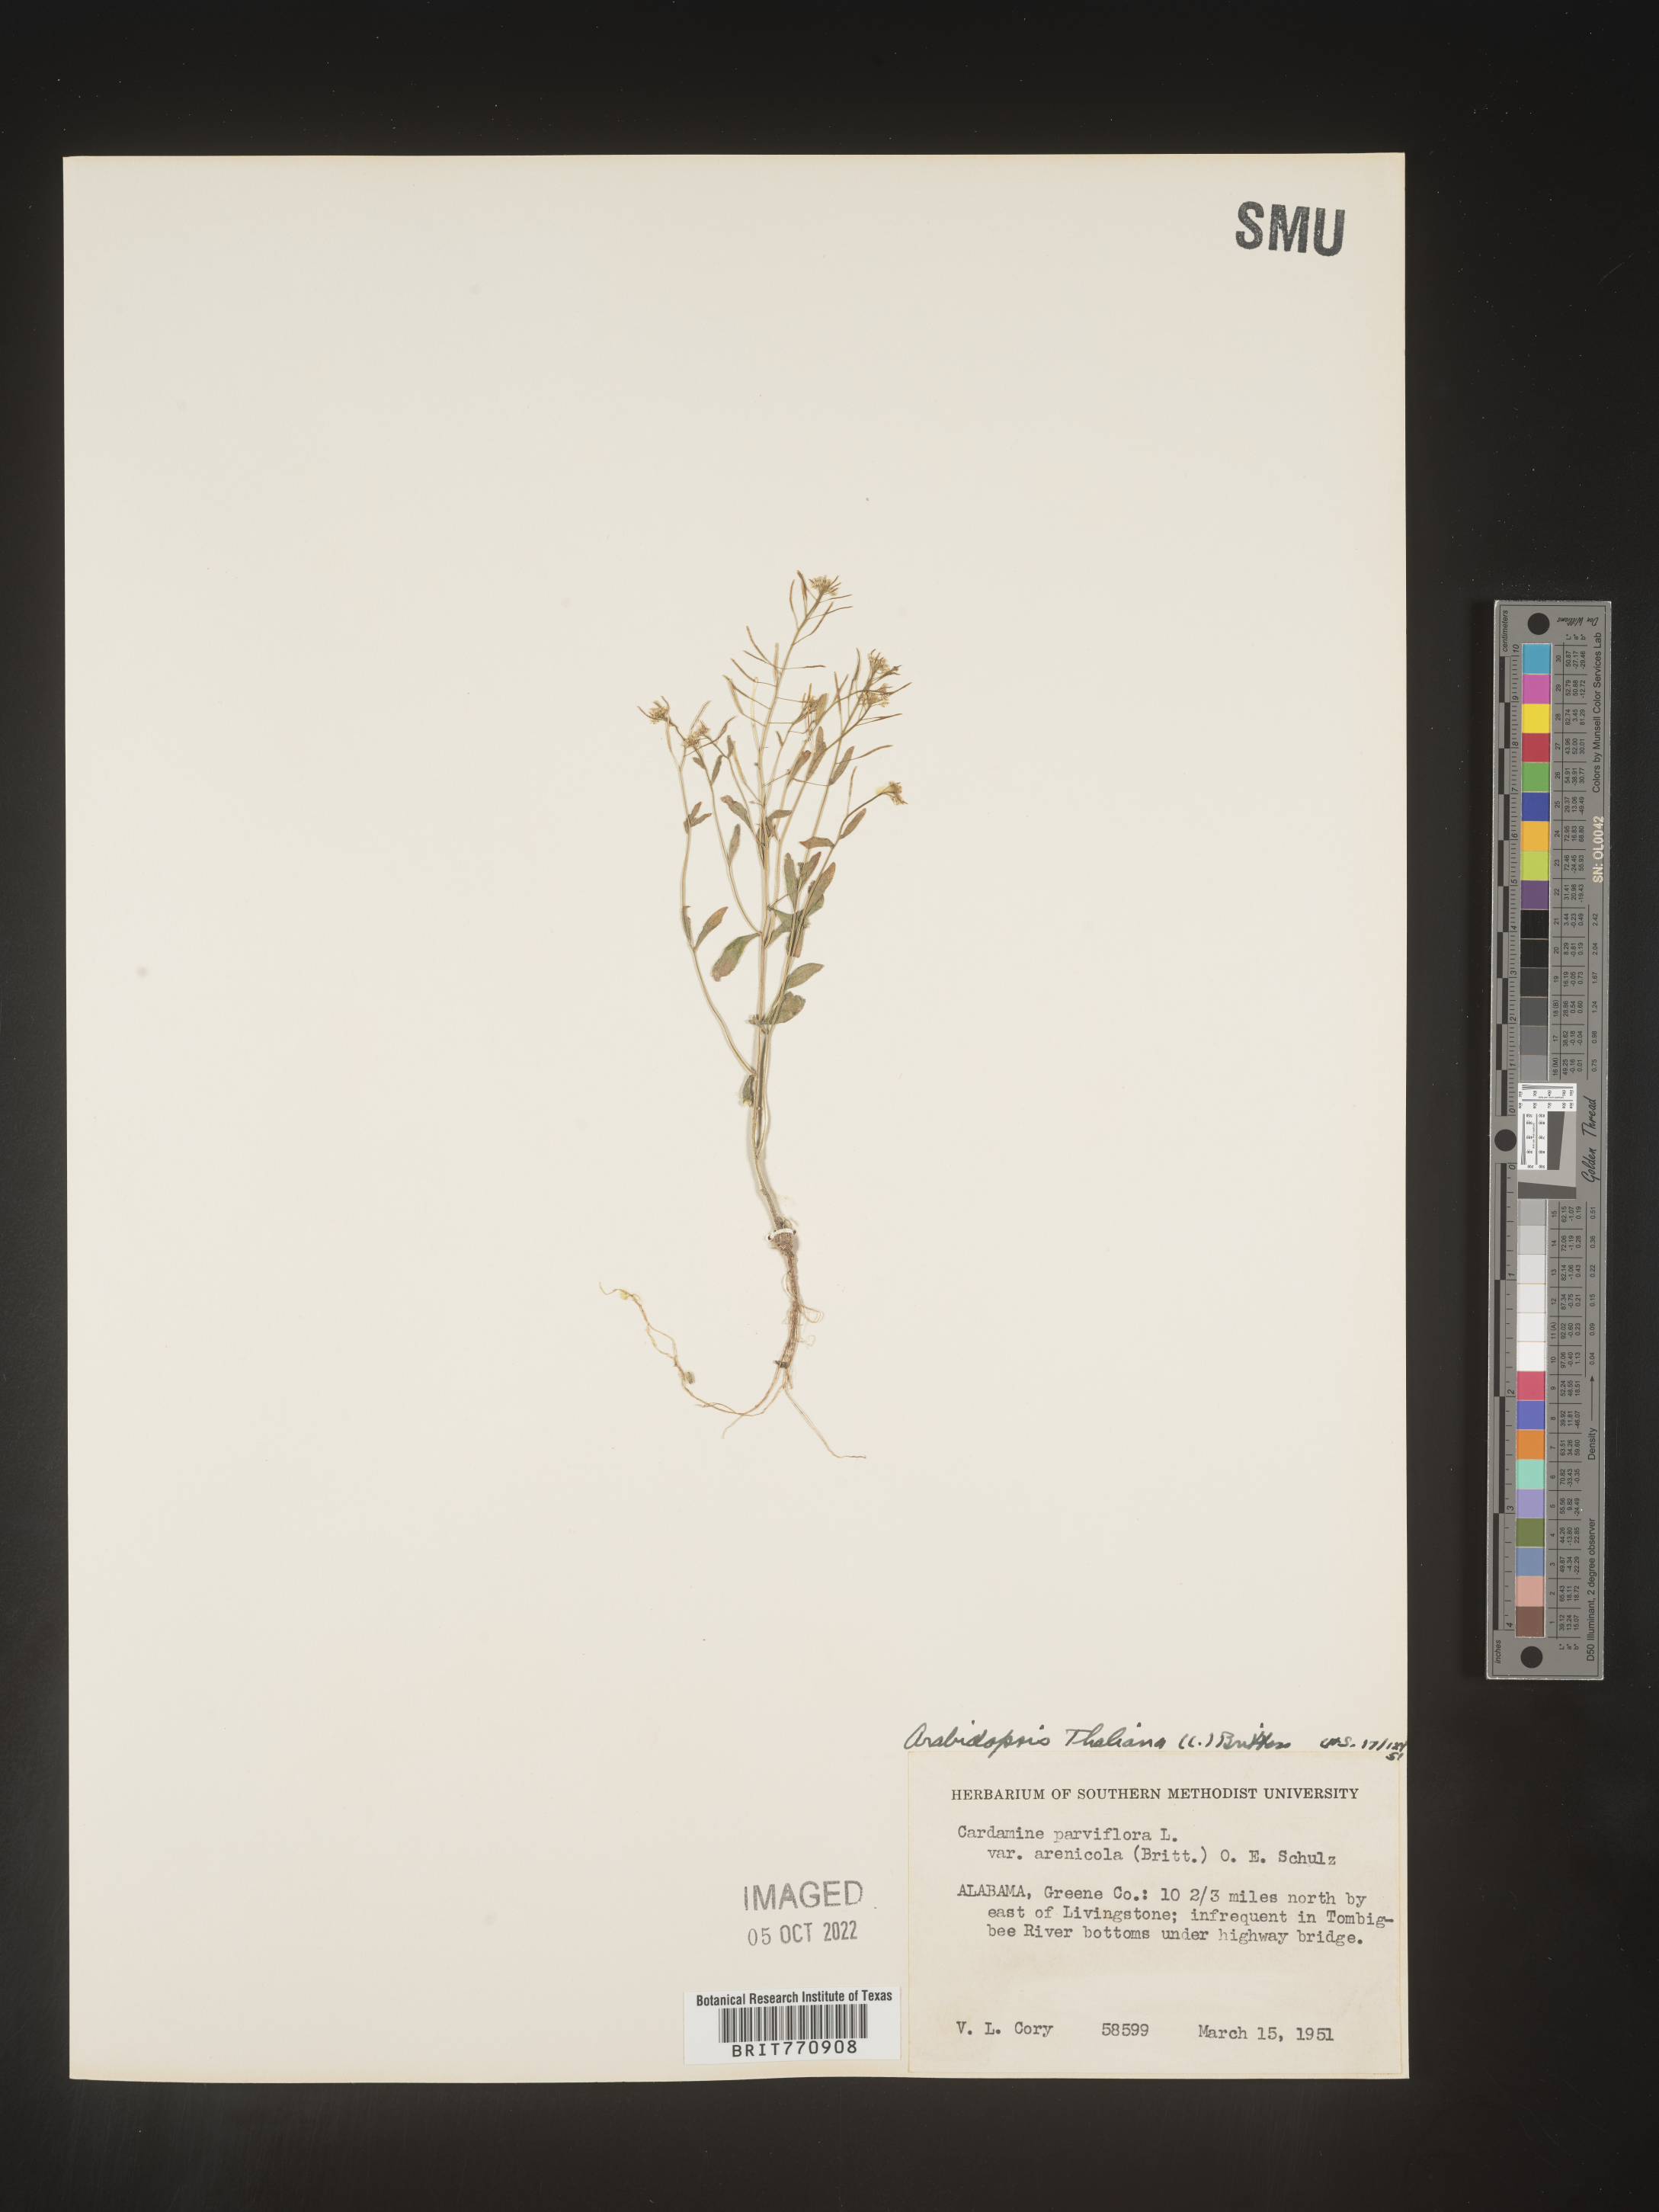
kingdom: Plantae
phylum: Tracheophyta
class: Magnoliopsida
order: Brassicales
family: Brassicaceae
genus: Arabidopsis
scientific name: Arabidopsis thaliana
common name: Thale cress
